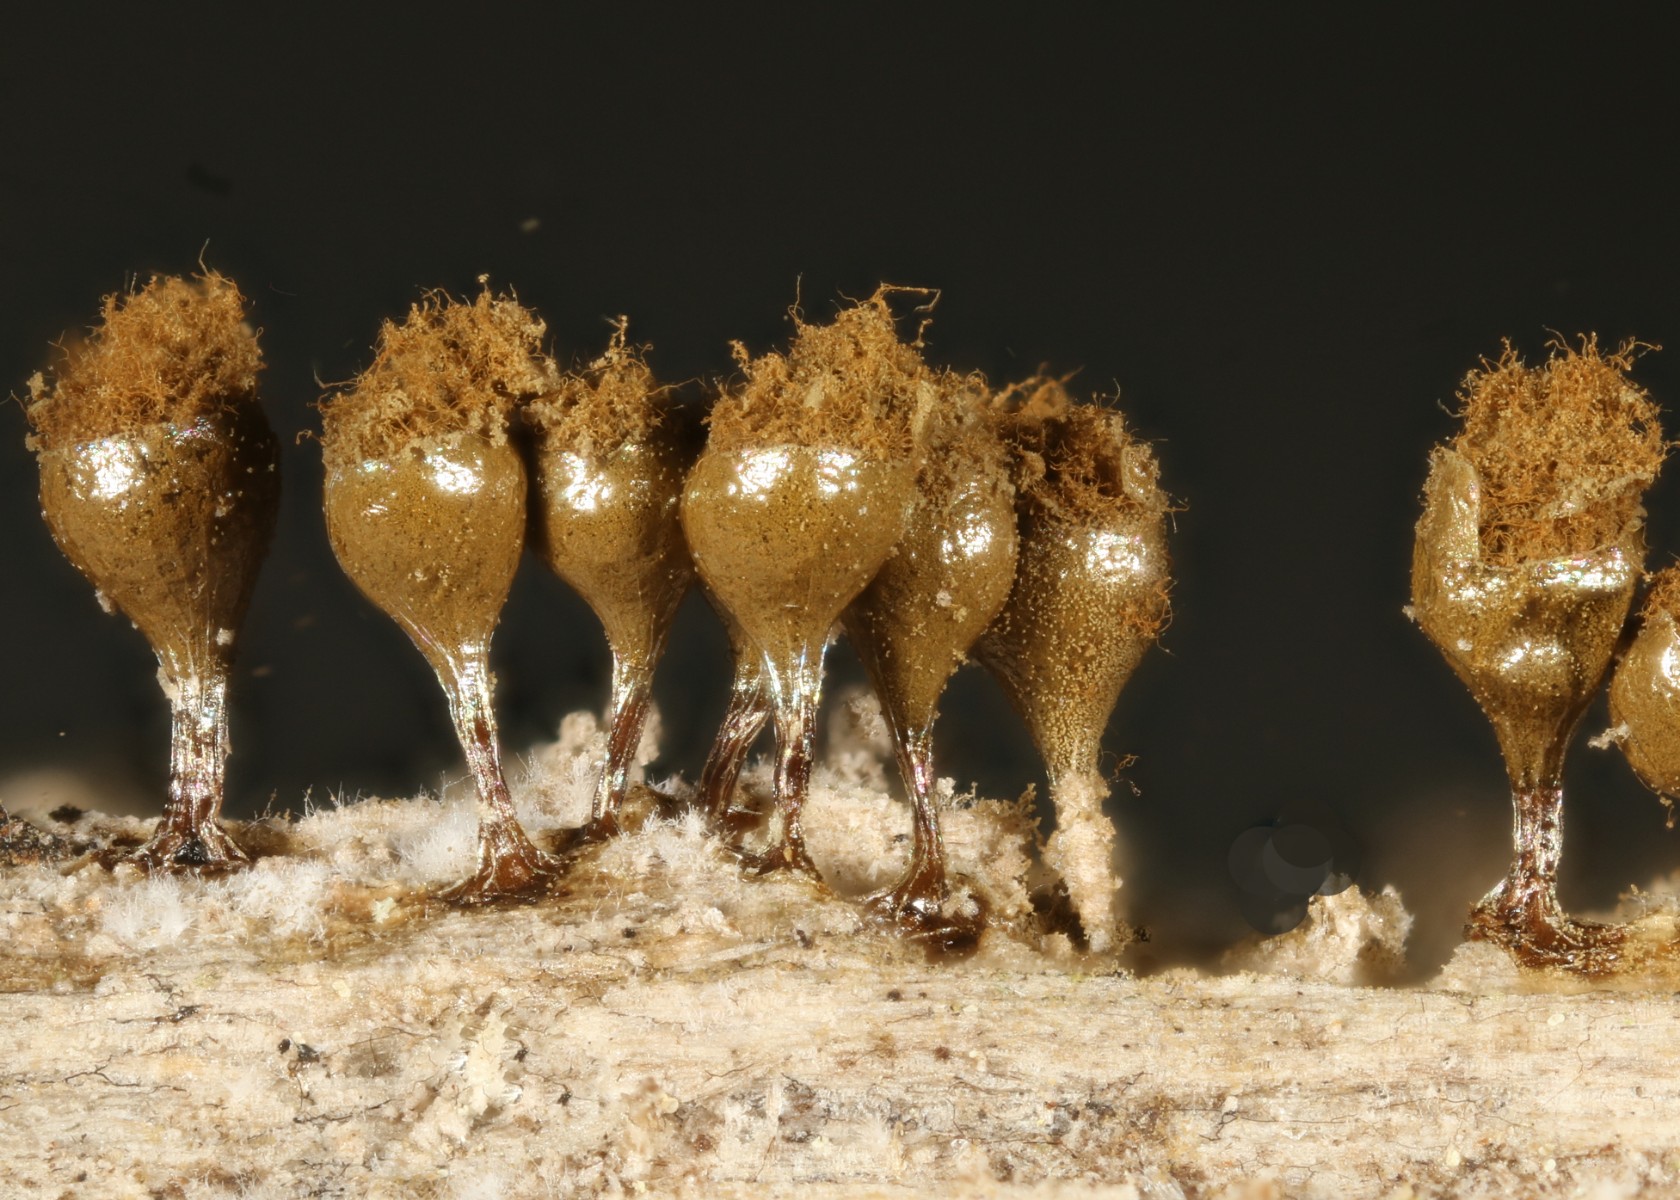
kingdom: Protozoa
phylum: Mycetozoa
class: Myxomycetes
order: Trichiales
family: Trichiaceae
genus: Trichia
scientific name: Trichia crateriformis
